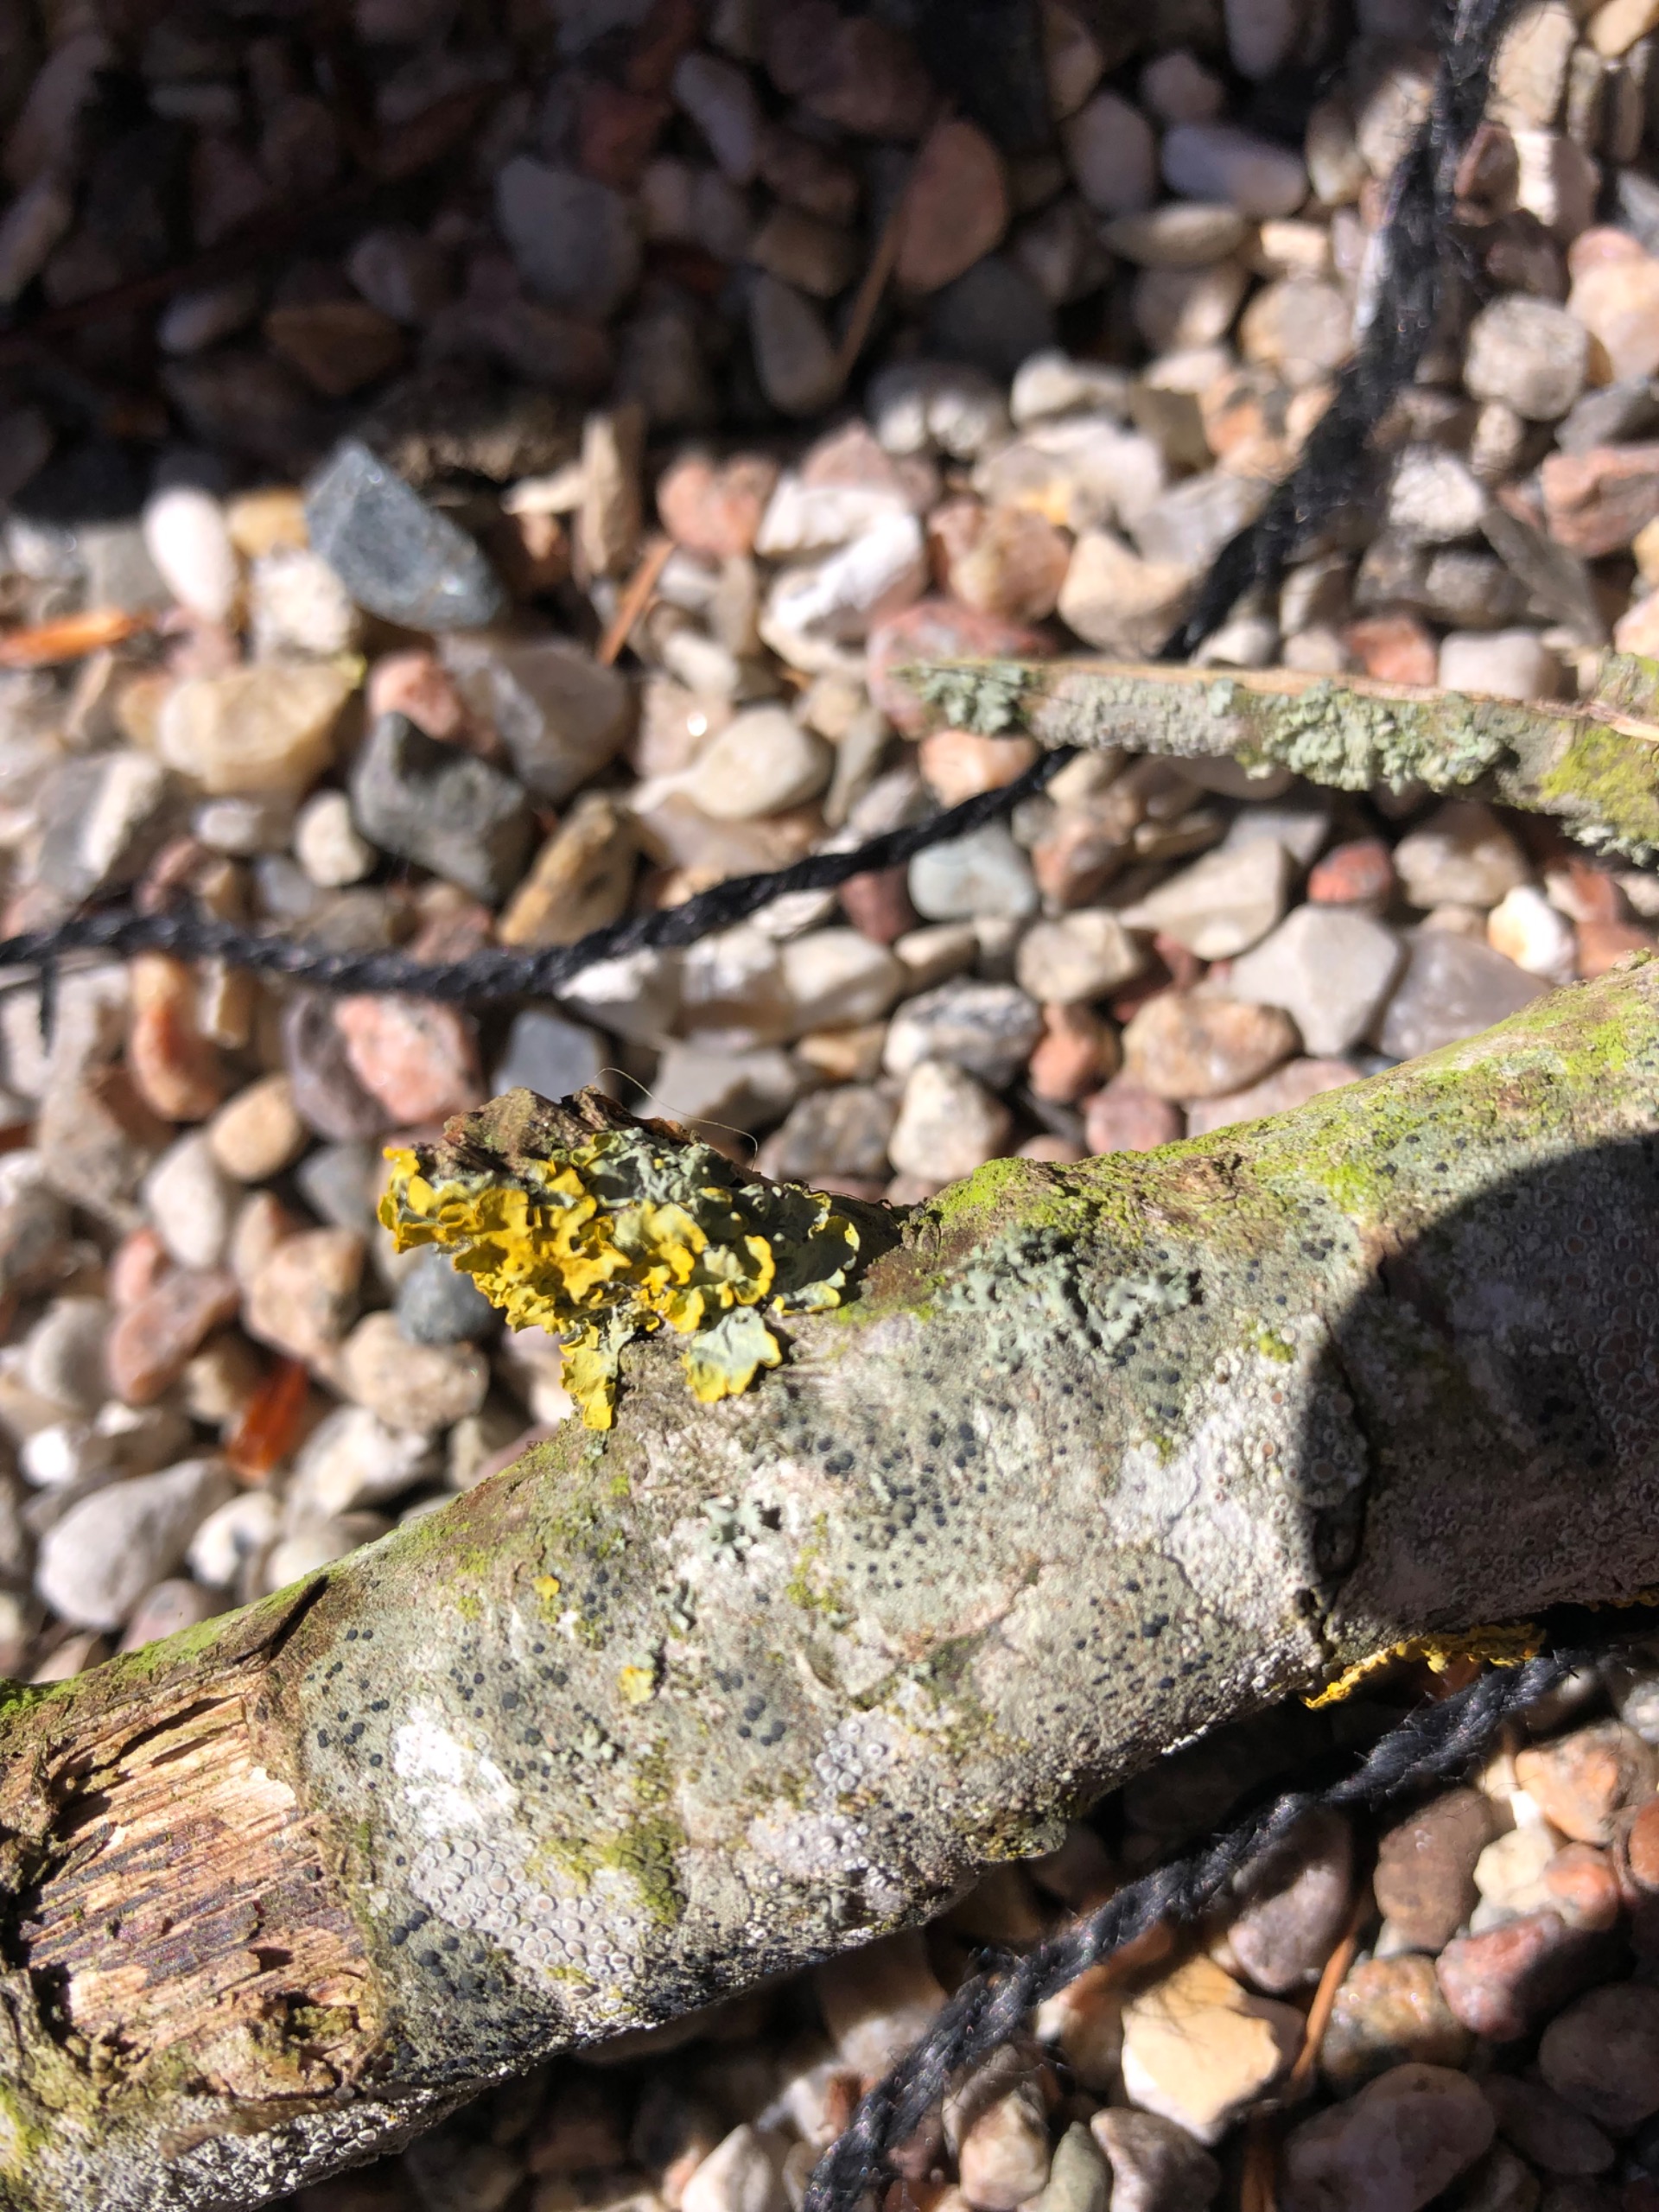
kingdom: Fungi
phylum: Ascomycota
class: Lecanoromycetes
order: Teloschistales
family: Teloschistaceae
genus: Xanthoria
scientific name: Xanthoria parietina
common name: Almindelig væggelav
